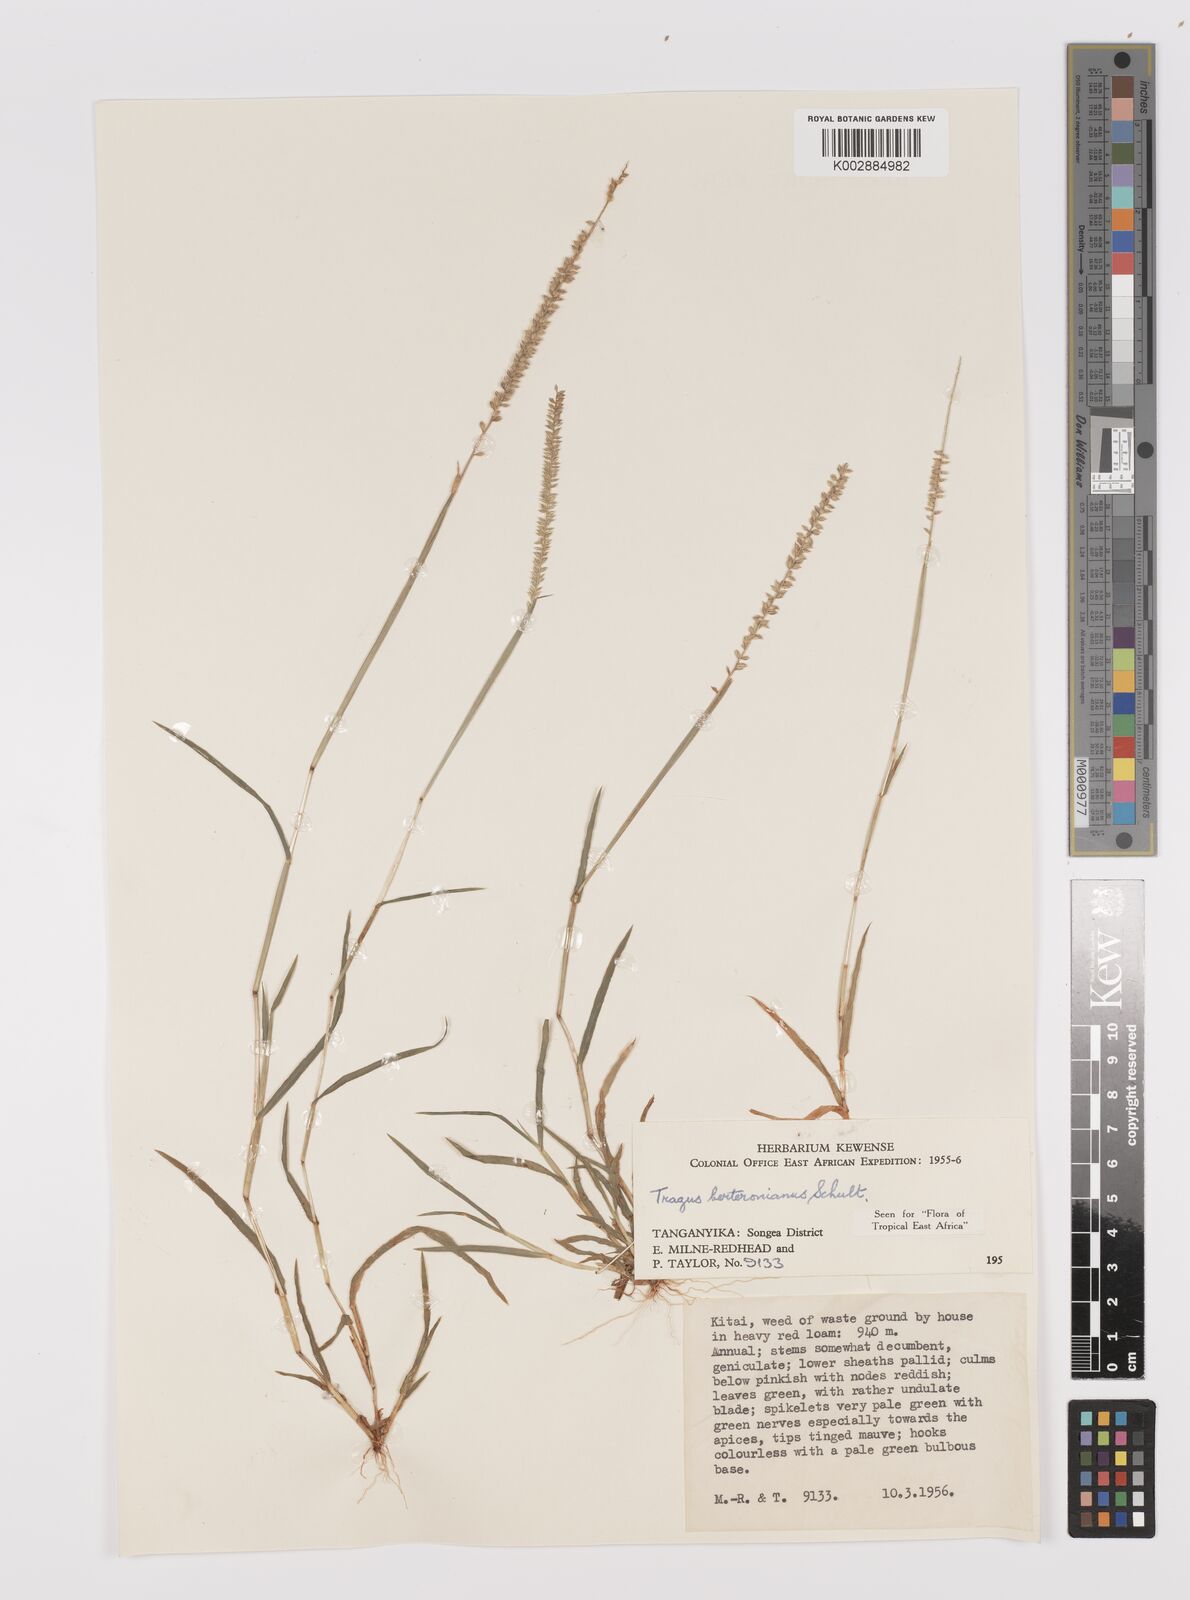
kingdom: Plantae
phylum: Tracheophyta
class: Liliopsida
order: Poales
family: Poaceae
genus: Tragus
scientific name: Tragus berteronianus
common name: African bur-grass
